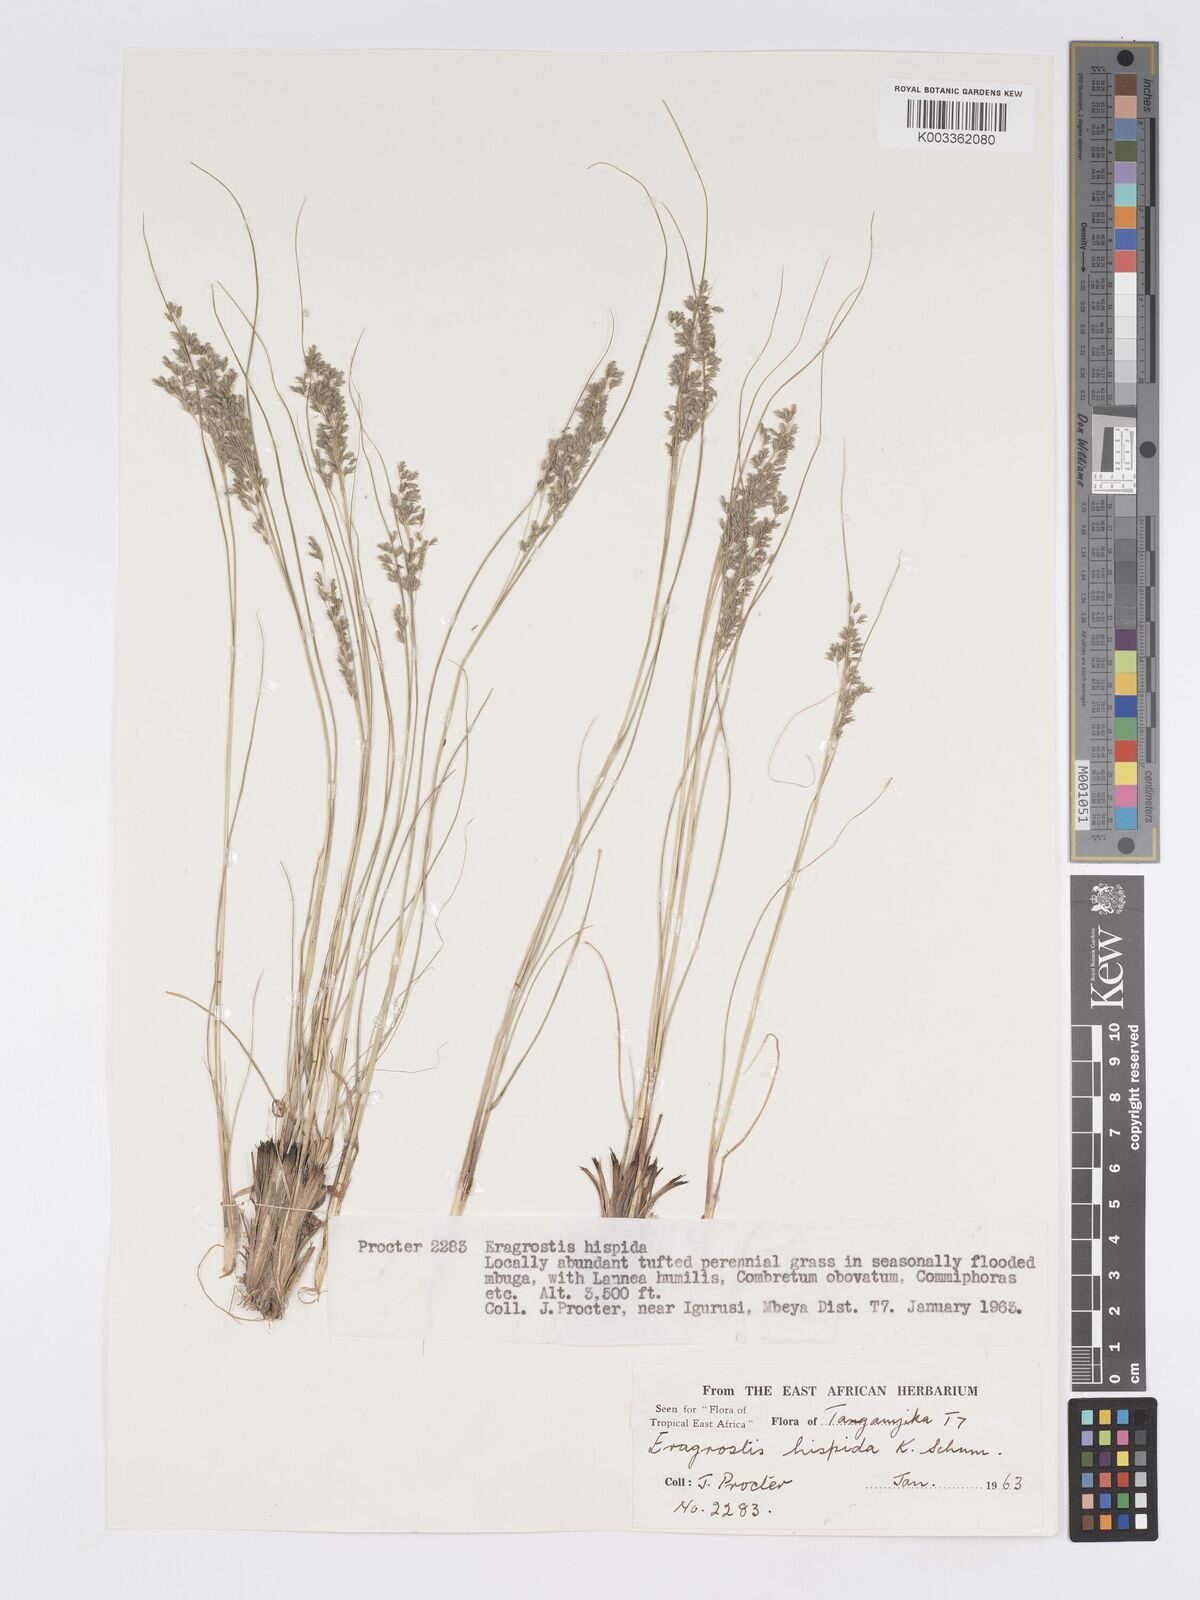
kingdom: Plantae
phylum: Tracheophyta
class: Liliopsida
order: Poales
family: Poaceae
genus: Eragrostis
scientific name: Eragrostis hispida
